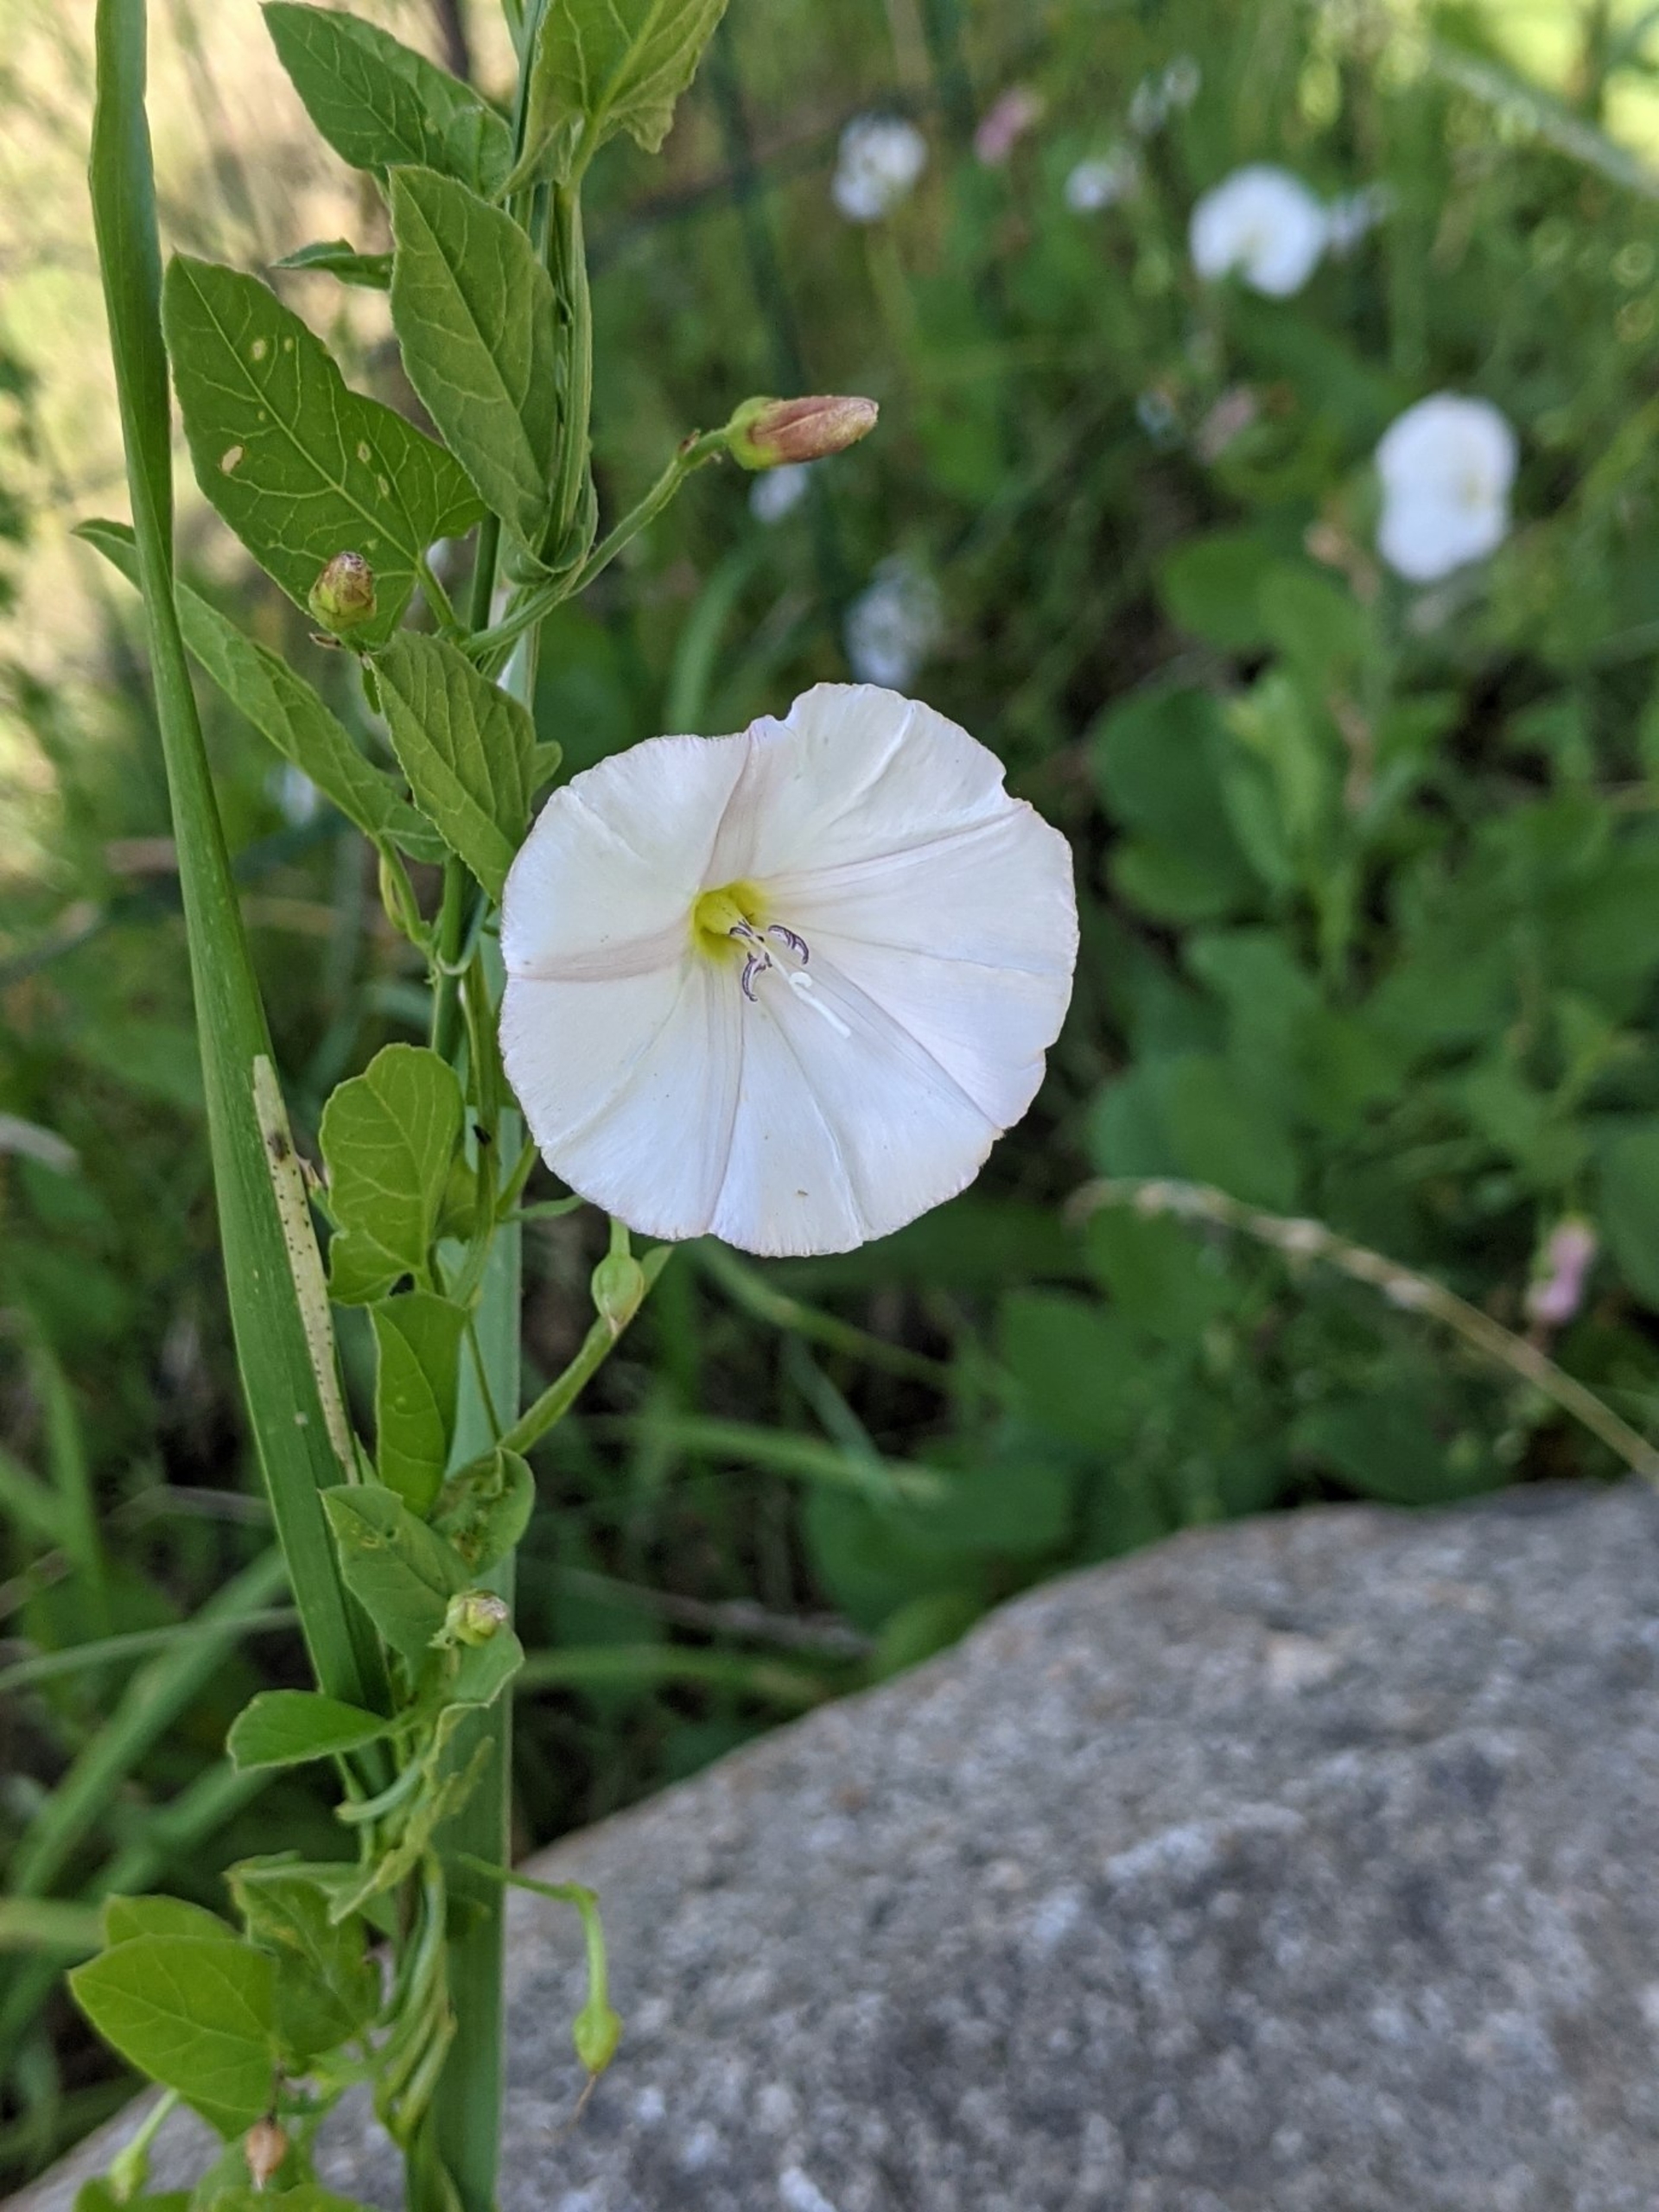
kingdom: Plantae
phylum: Tracheophyta
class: Magnoliopsida
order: Solanales
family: Convolvulaceae
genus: Convolvulus
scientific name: Convolvulus arvensis
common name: Ager-snerle
